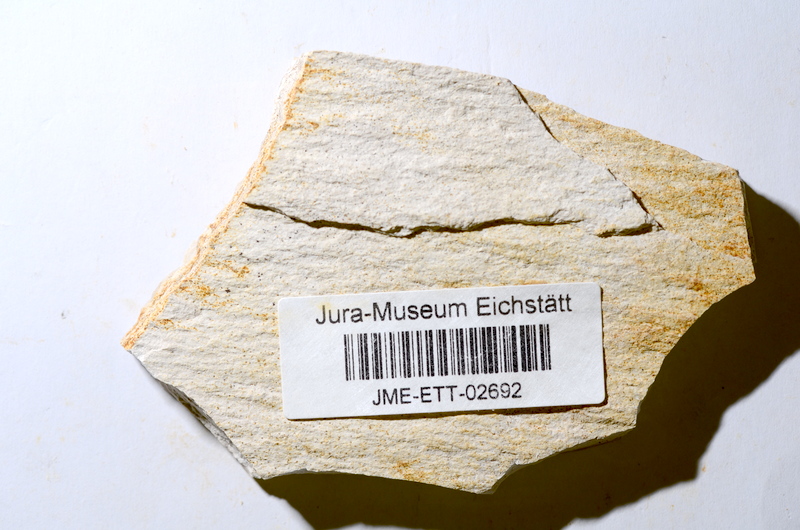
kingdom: Animalia
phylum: Chordata
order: Salmoniformes
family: Orthogonikleithridae
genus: Orthogonikleithrus
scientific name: Orthogonikleithrus hoelli
